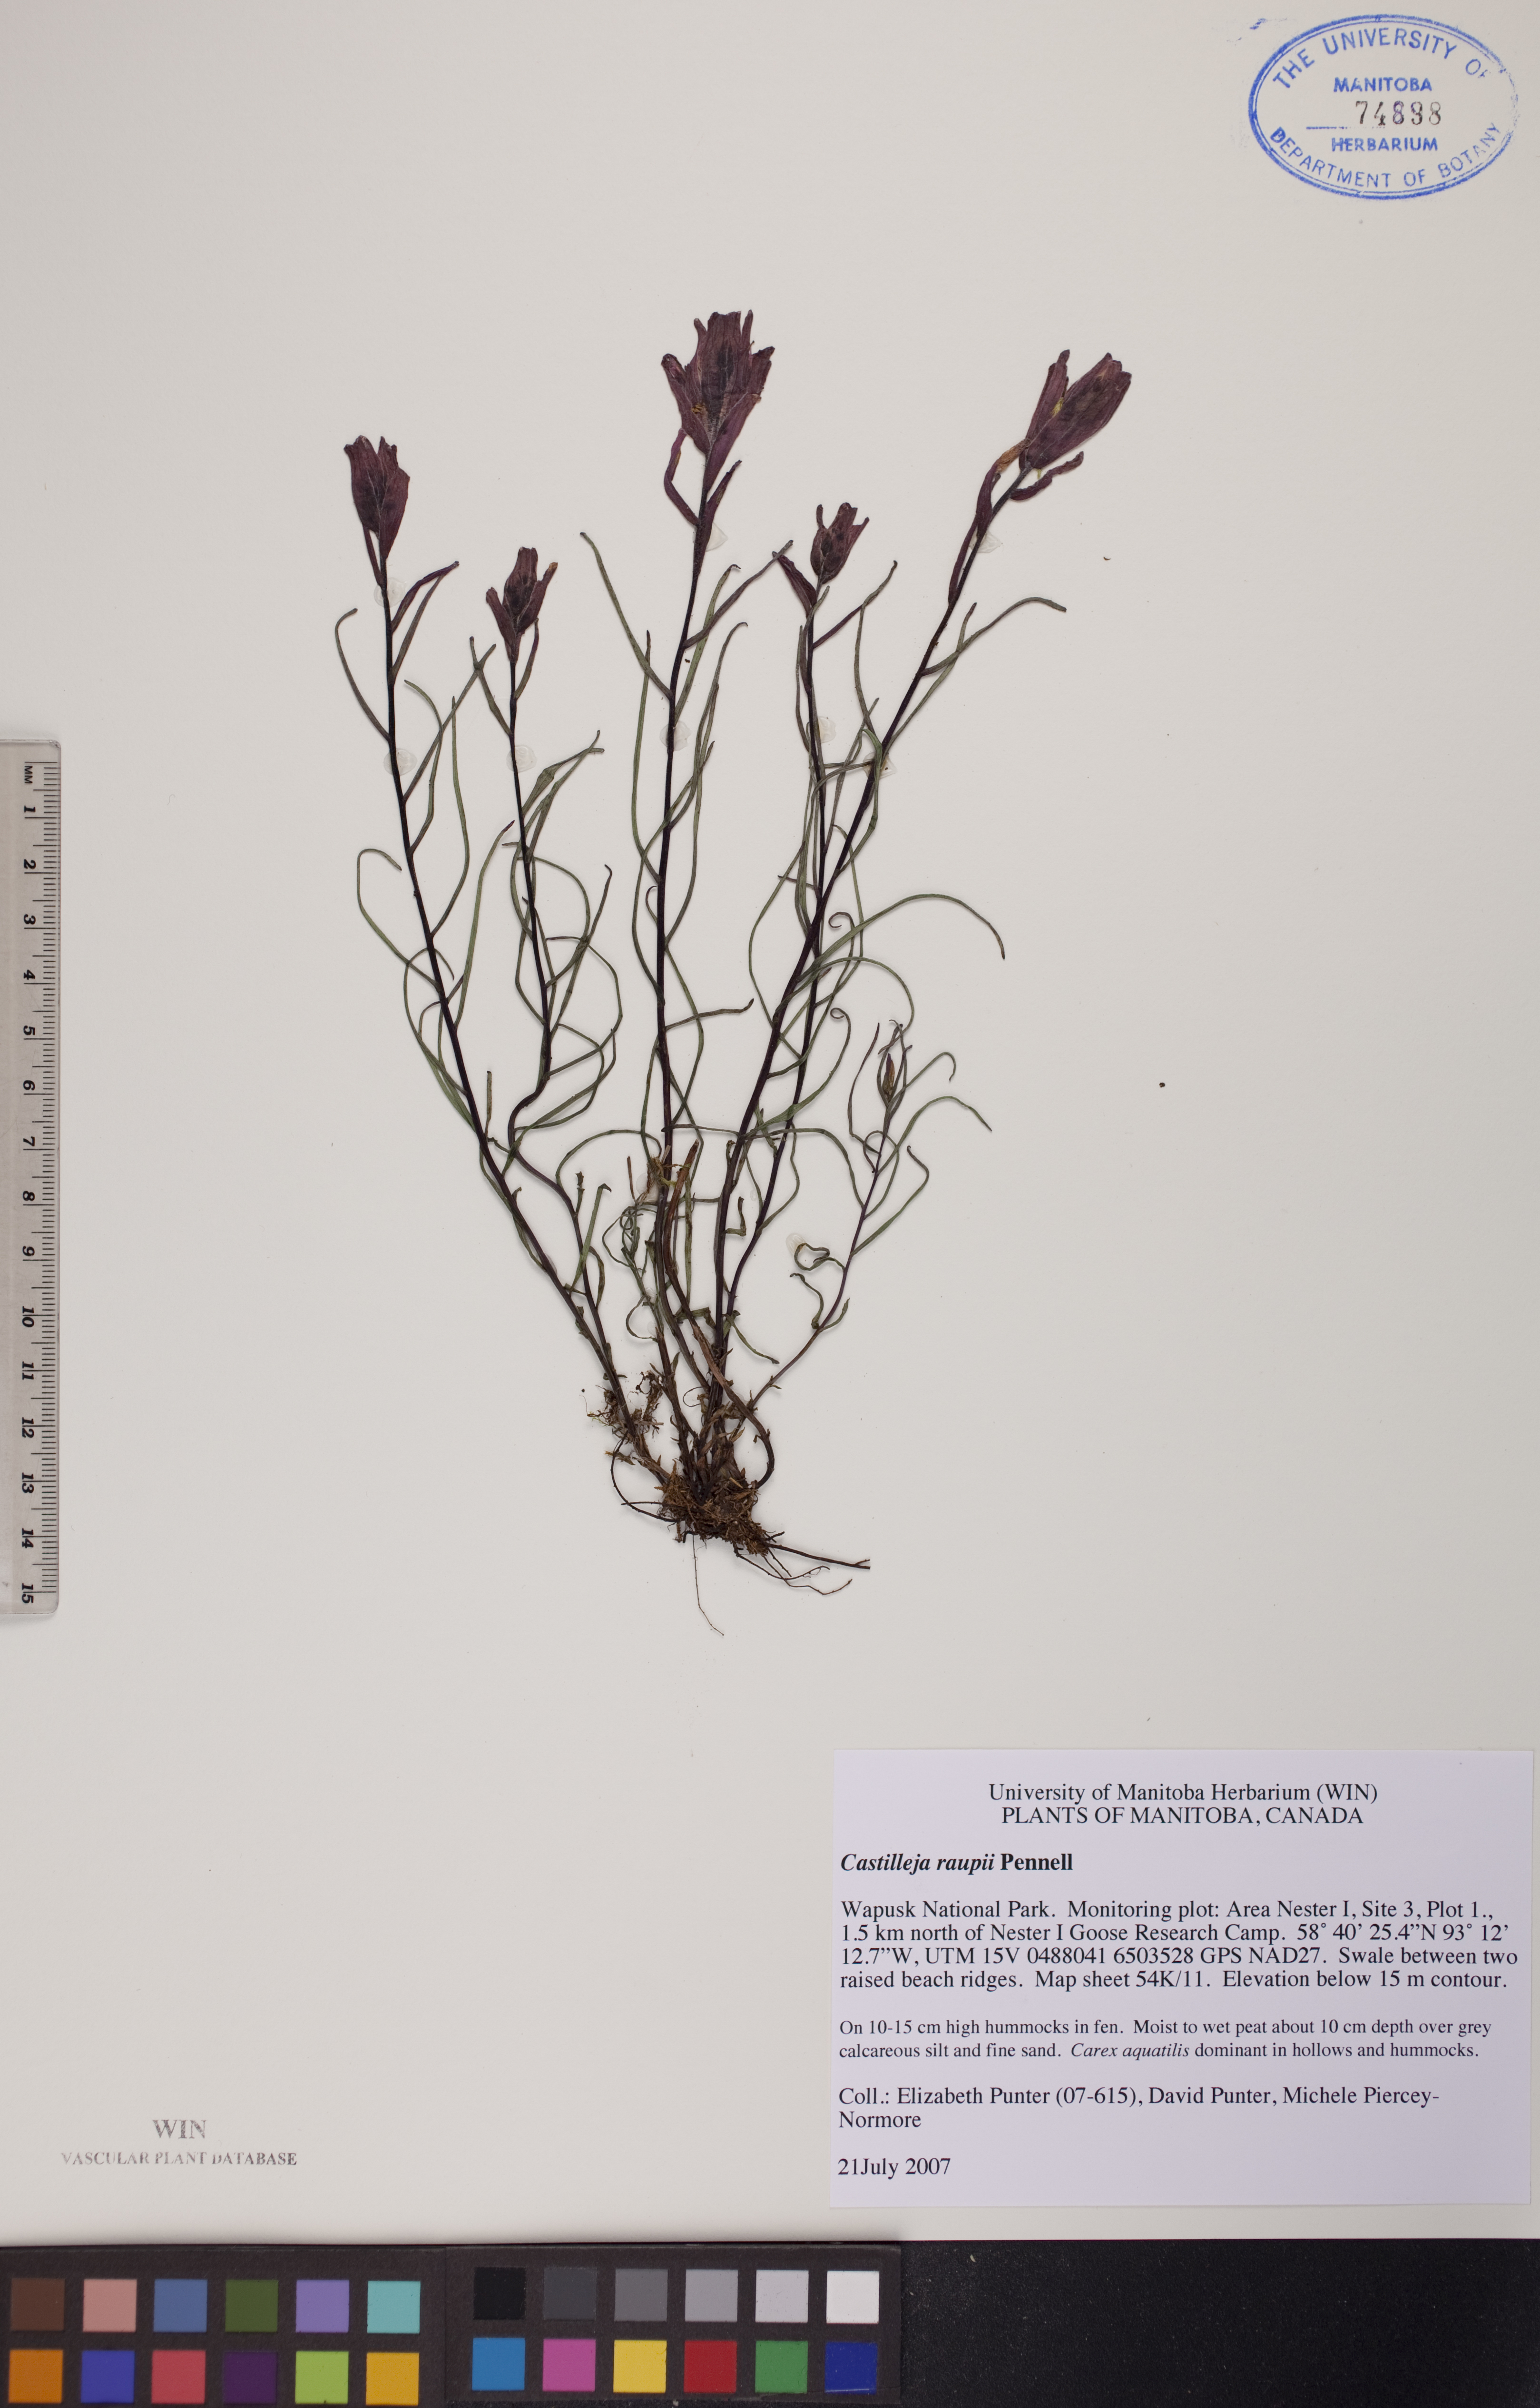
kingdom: Plantae
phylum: Tracheophyta
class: Magnoliopsida
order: Lamiales
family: Orobanchaceae
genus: Castilleja
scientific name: Castilleja raupii
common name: Raup's paintbrush
